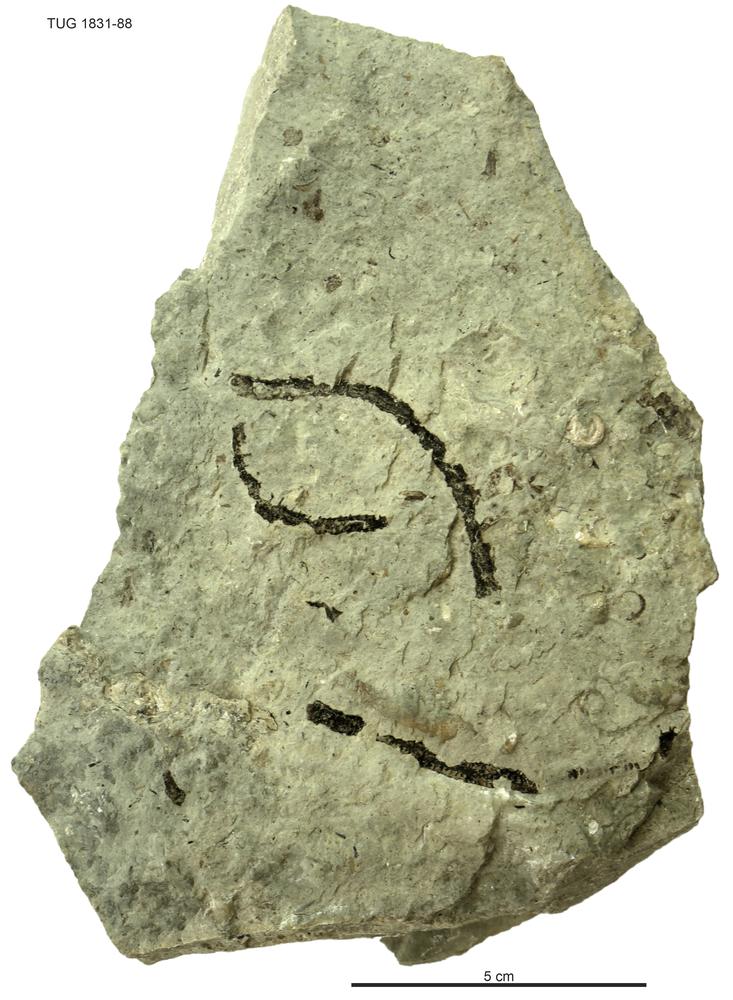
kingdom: Animalia
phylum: Echinodermata
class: Crinoidea
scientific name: Crinoidea
